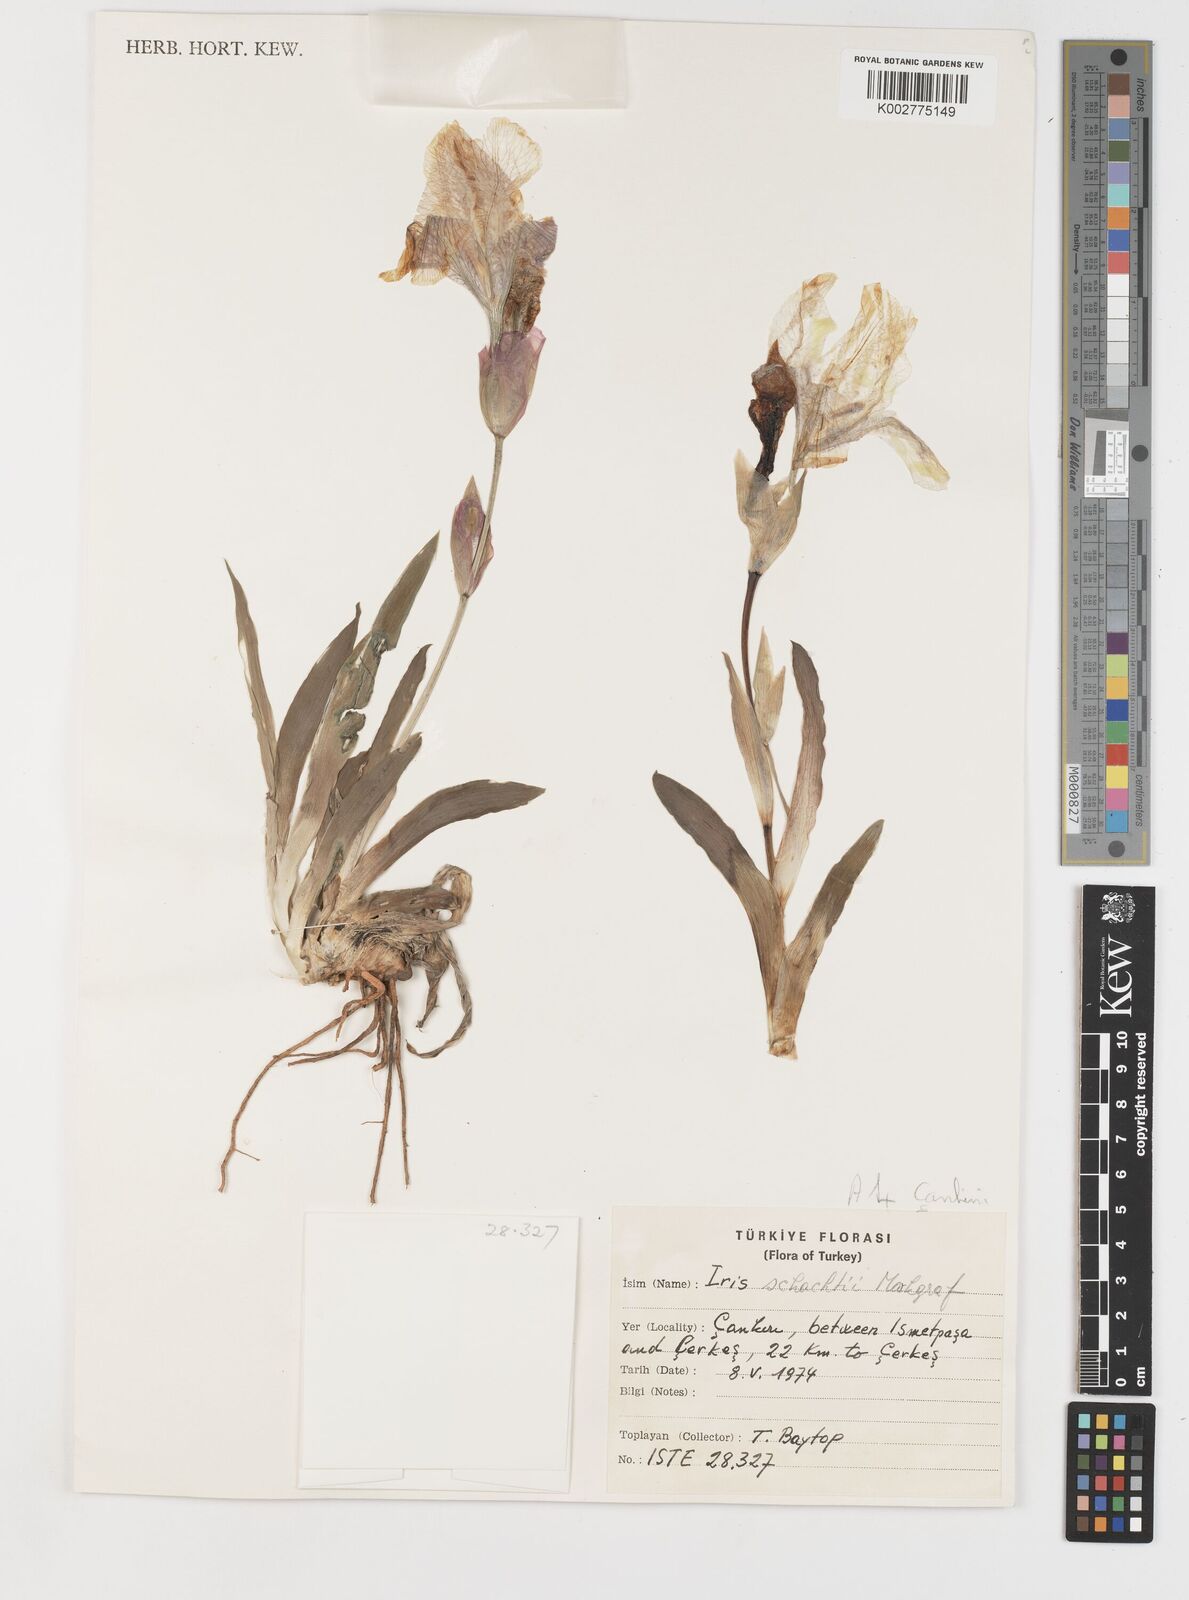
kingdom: Plantae
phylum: Tracheophyta
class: Liliopsida
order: Asparagales
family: Iridaceae
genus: Iris
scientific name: Iris schachtii
